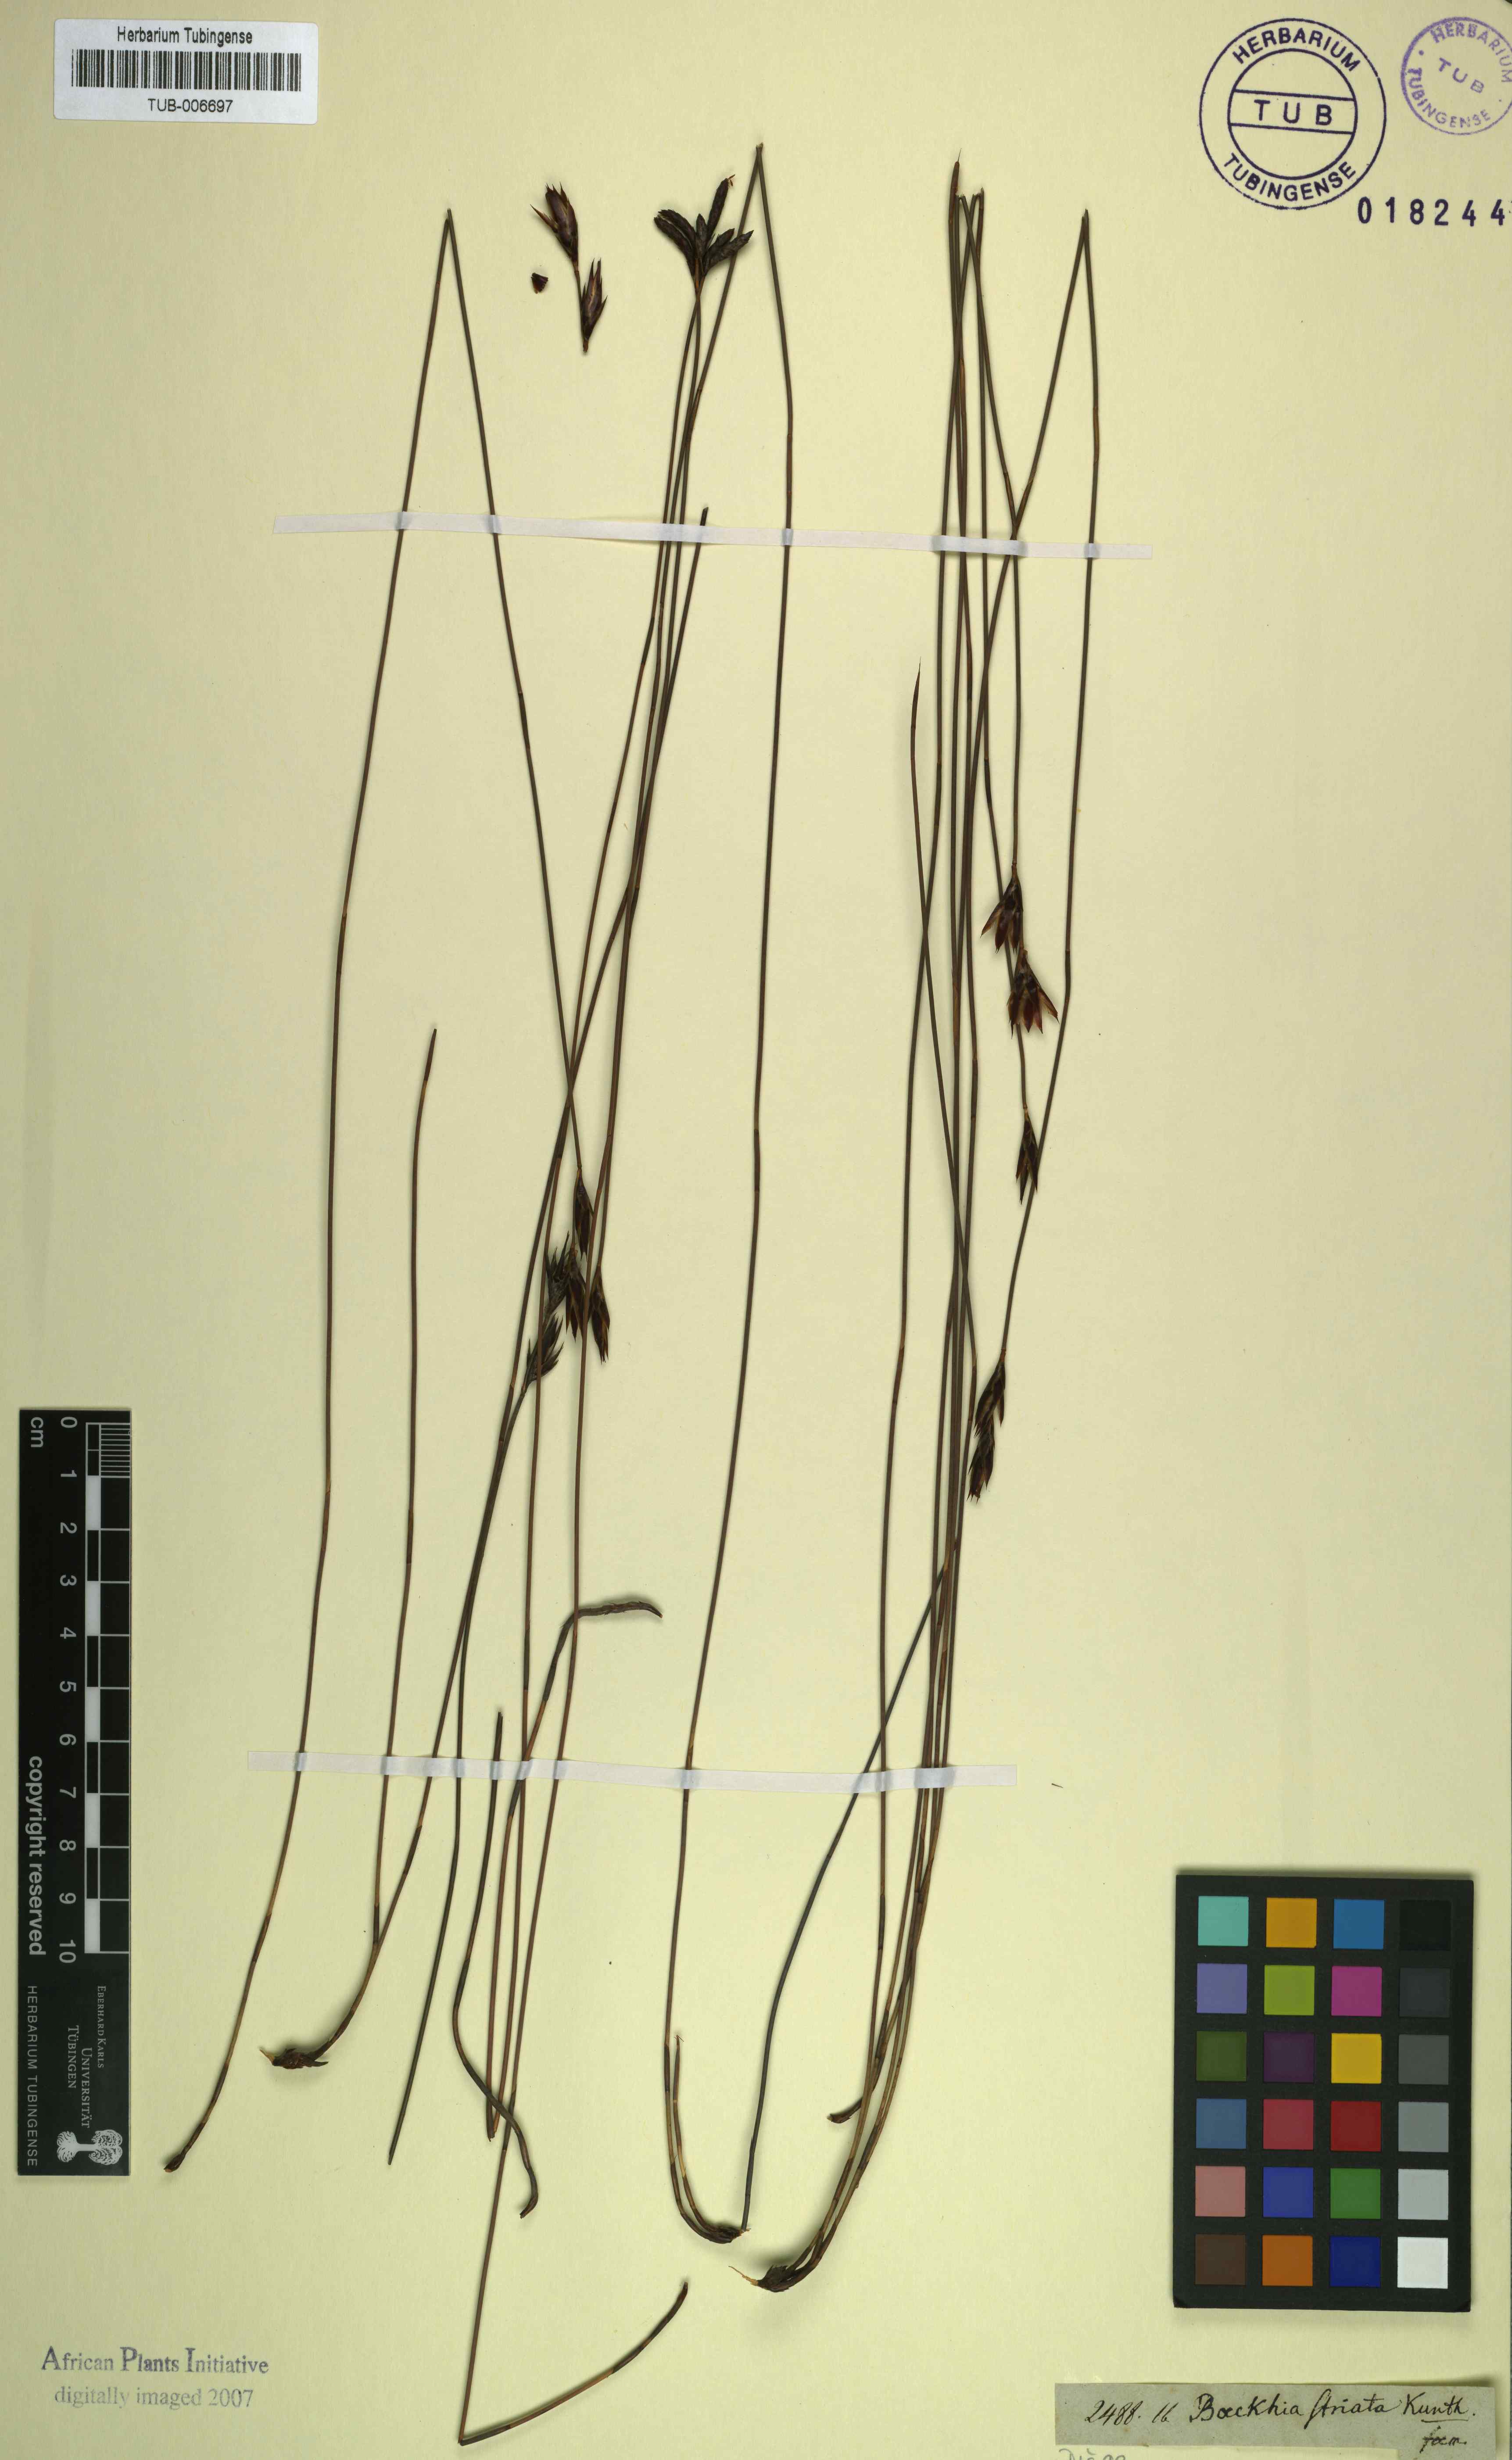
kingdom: Plantae
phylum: Tracheophyta
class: Liliopsida
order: Poales
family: Restionaceae
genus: Hypodiscus
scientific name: Hypodiscus striatus
